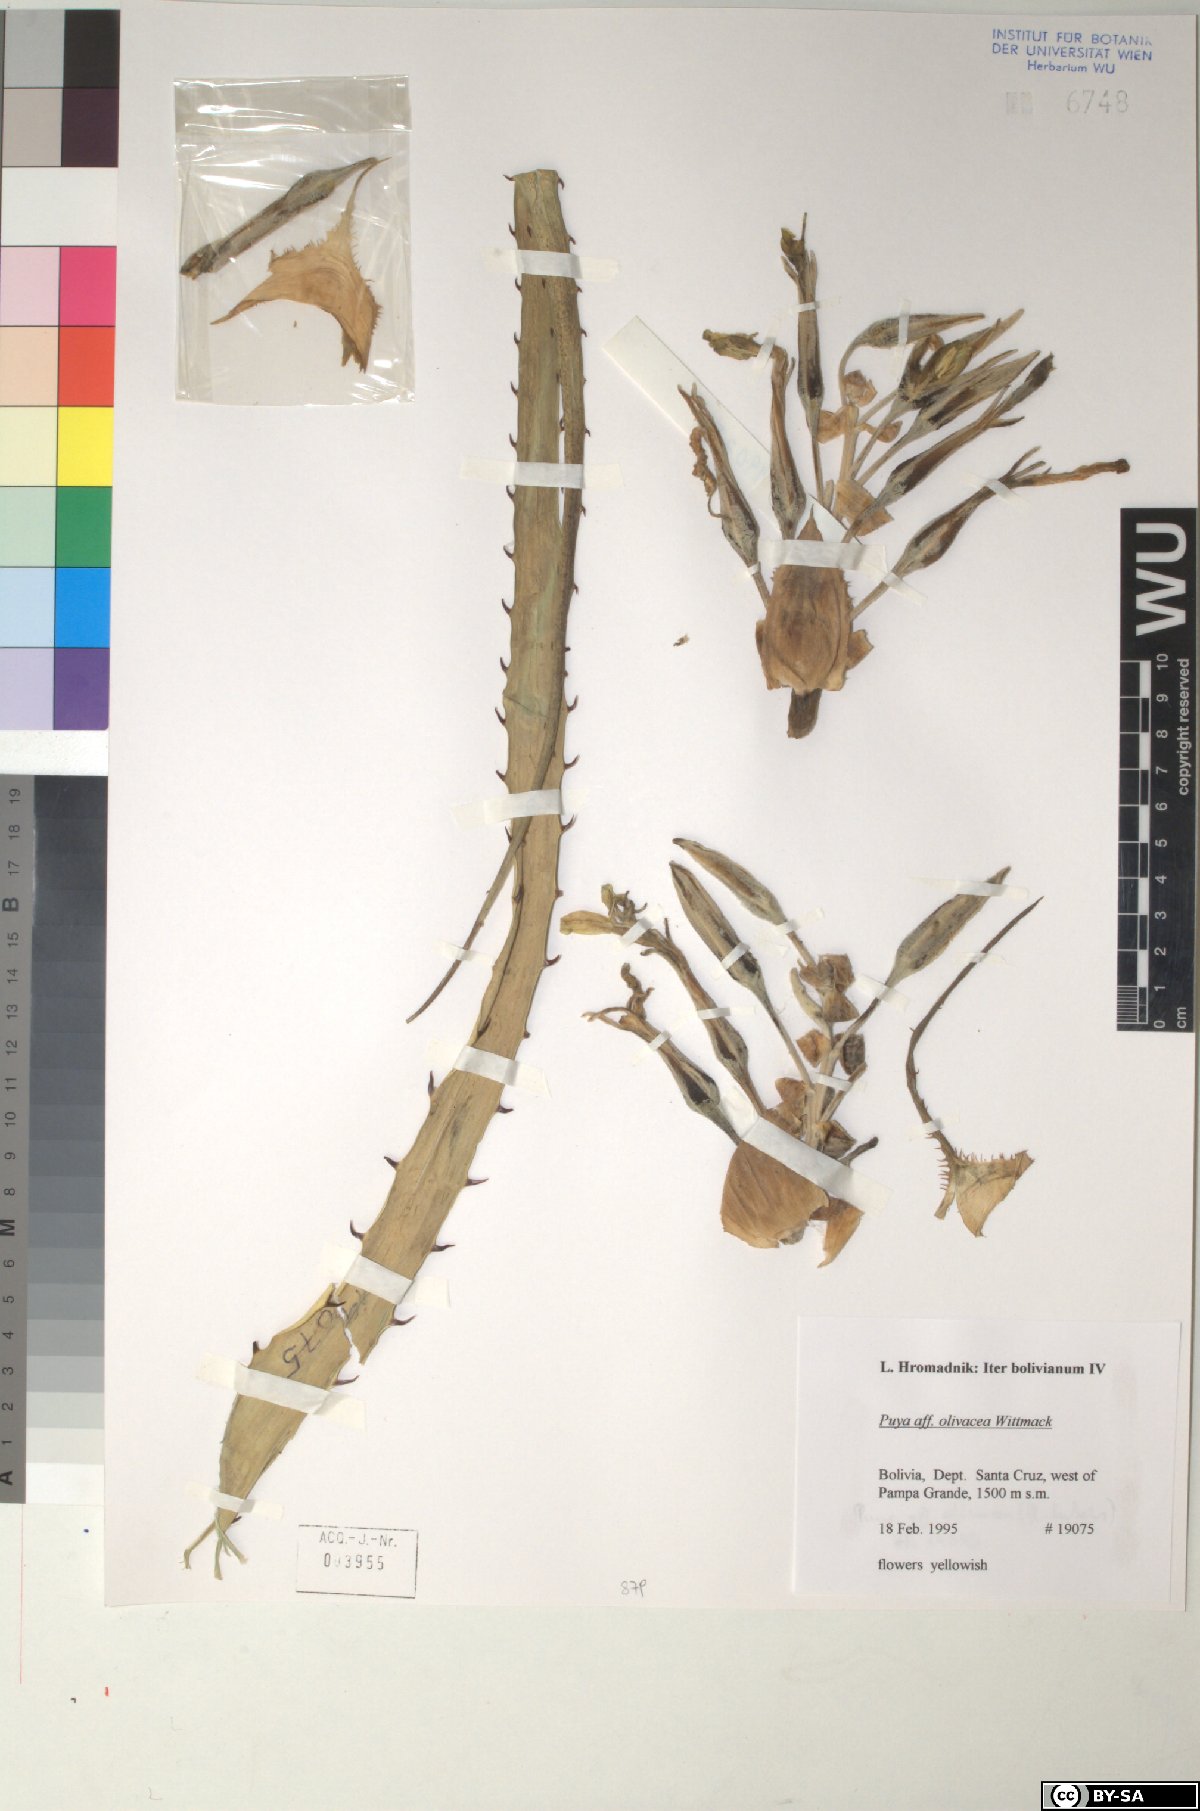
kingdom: Plantae
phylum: Tracheophyta
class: Liliopsida
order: Poales
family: Bromeliaceae
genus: Puya
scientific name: Puya olivacea
